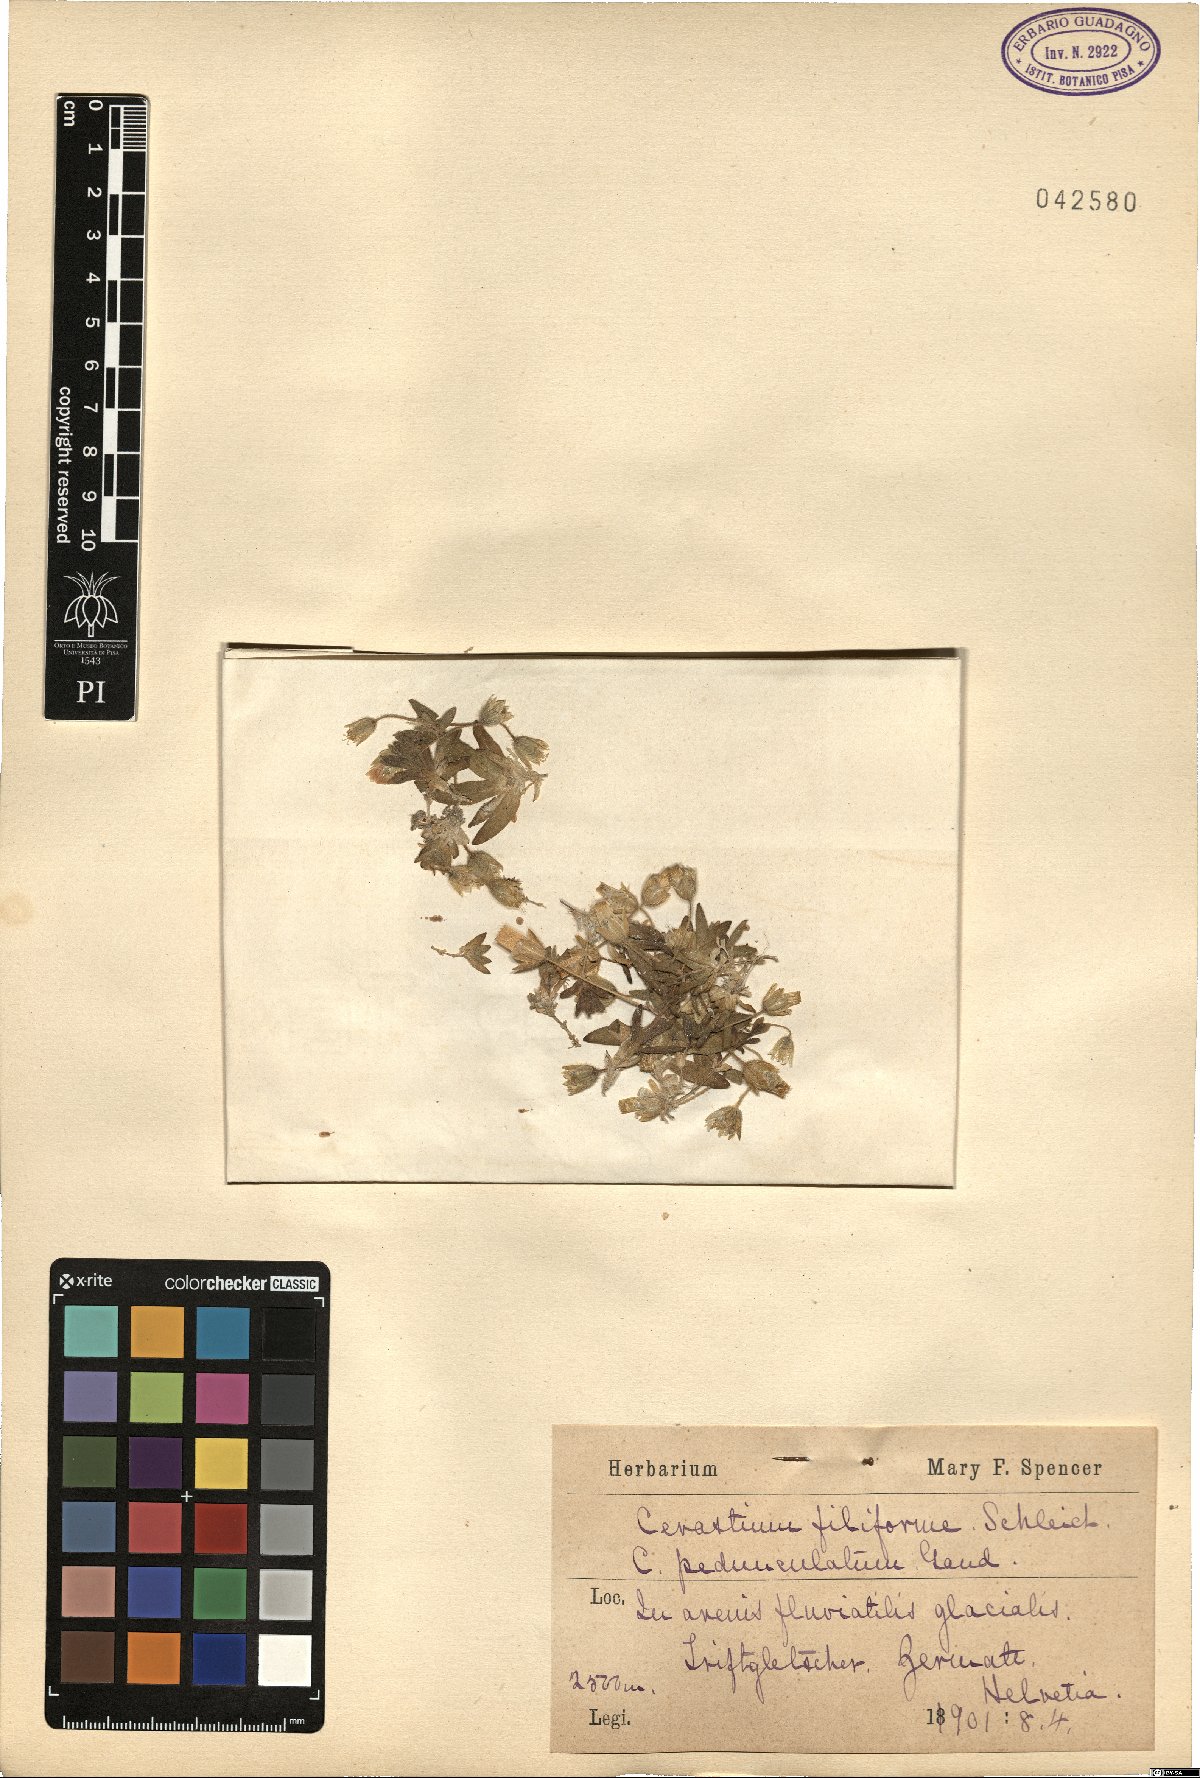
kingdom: Plantae
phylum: Tracheophyta
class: Magnoliopsida
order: Caryophyllales
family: Caryophyllaceae
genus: Cerastium
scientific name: Cerastium filifolium
